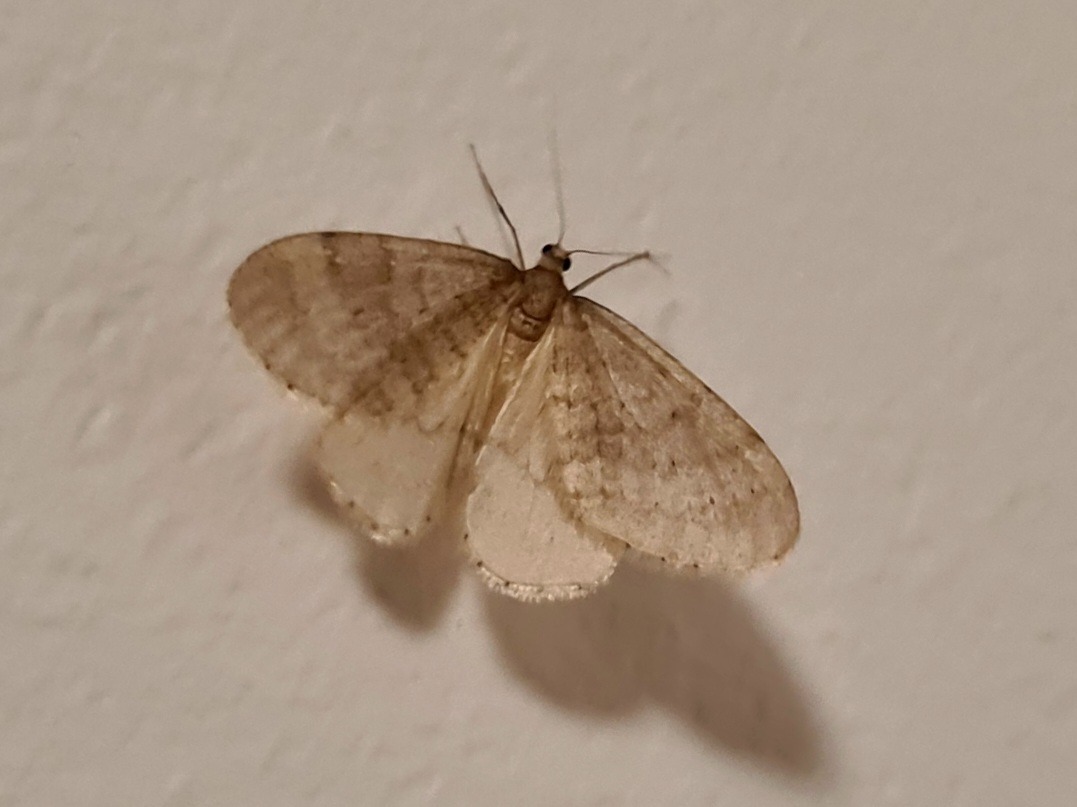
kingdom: Animalia
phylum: Arthropoda
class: Insecta
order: Lepidoptera
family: Geometridae
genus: Operophtera
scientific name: Operophtera brumata
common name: Lille frostmåler
